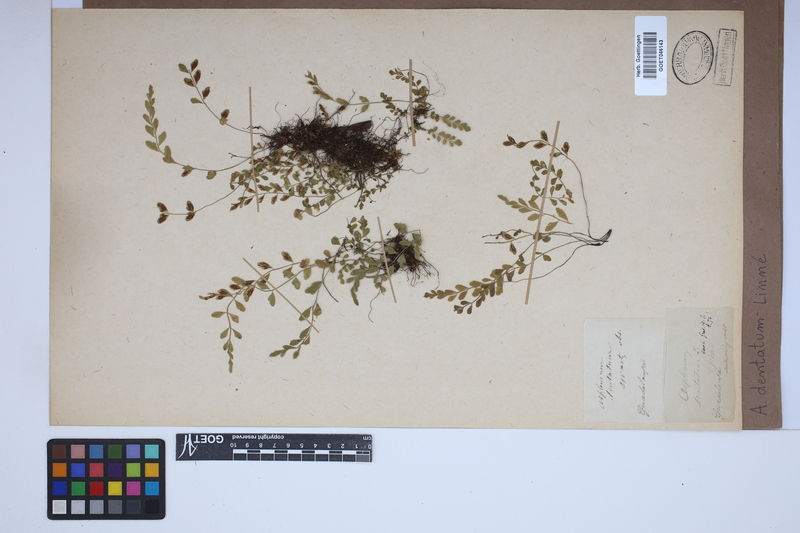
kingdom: Plantae
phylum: Tracheophyta
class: Polypodiopsida
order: Polypodiales
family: Aspleniaceae
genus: Asplenium
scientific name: Asplenium dentatum
